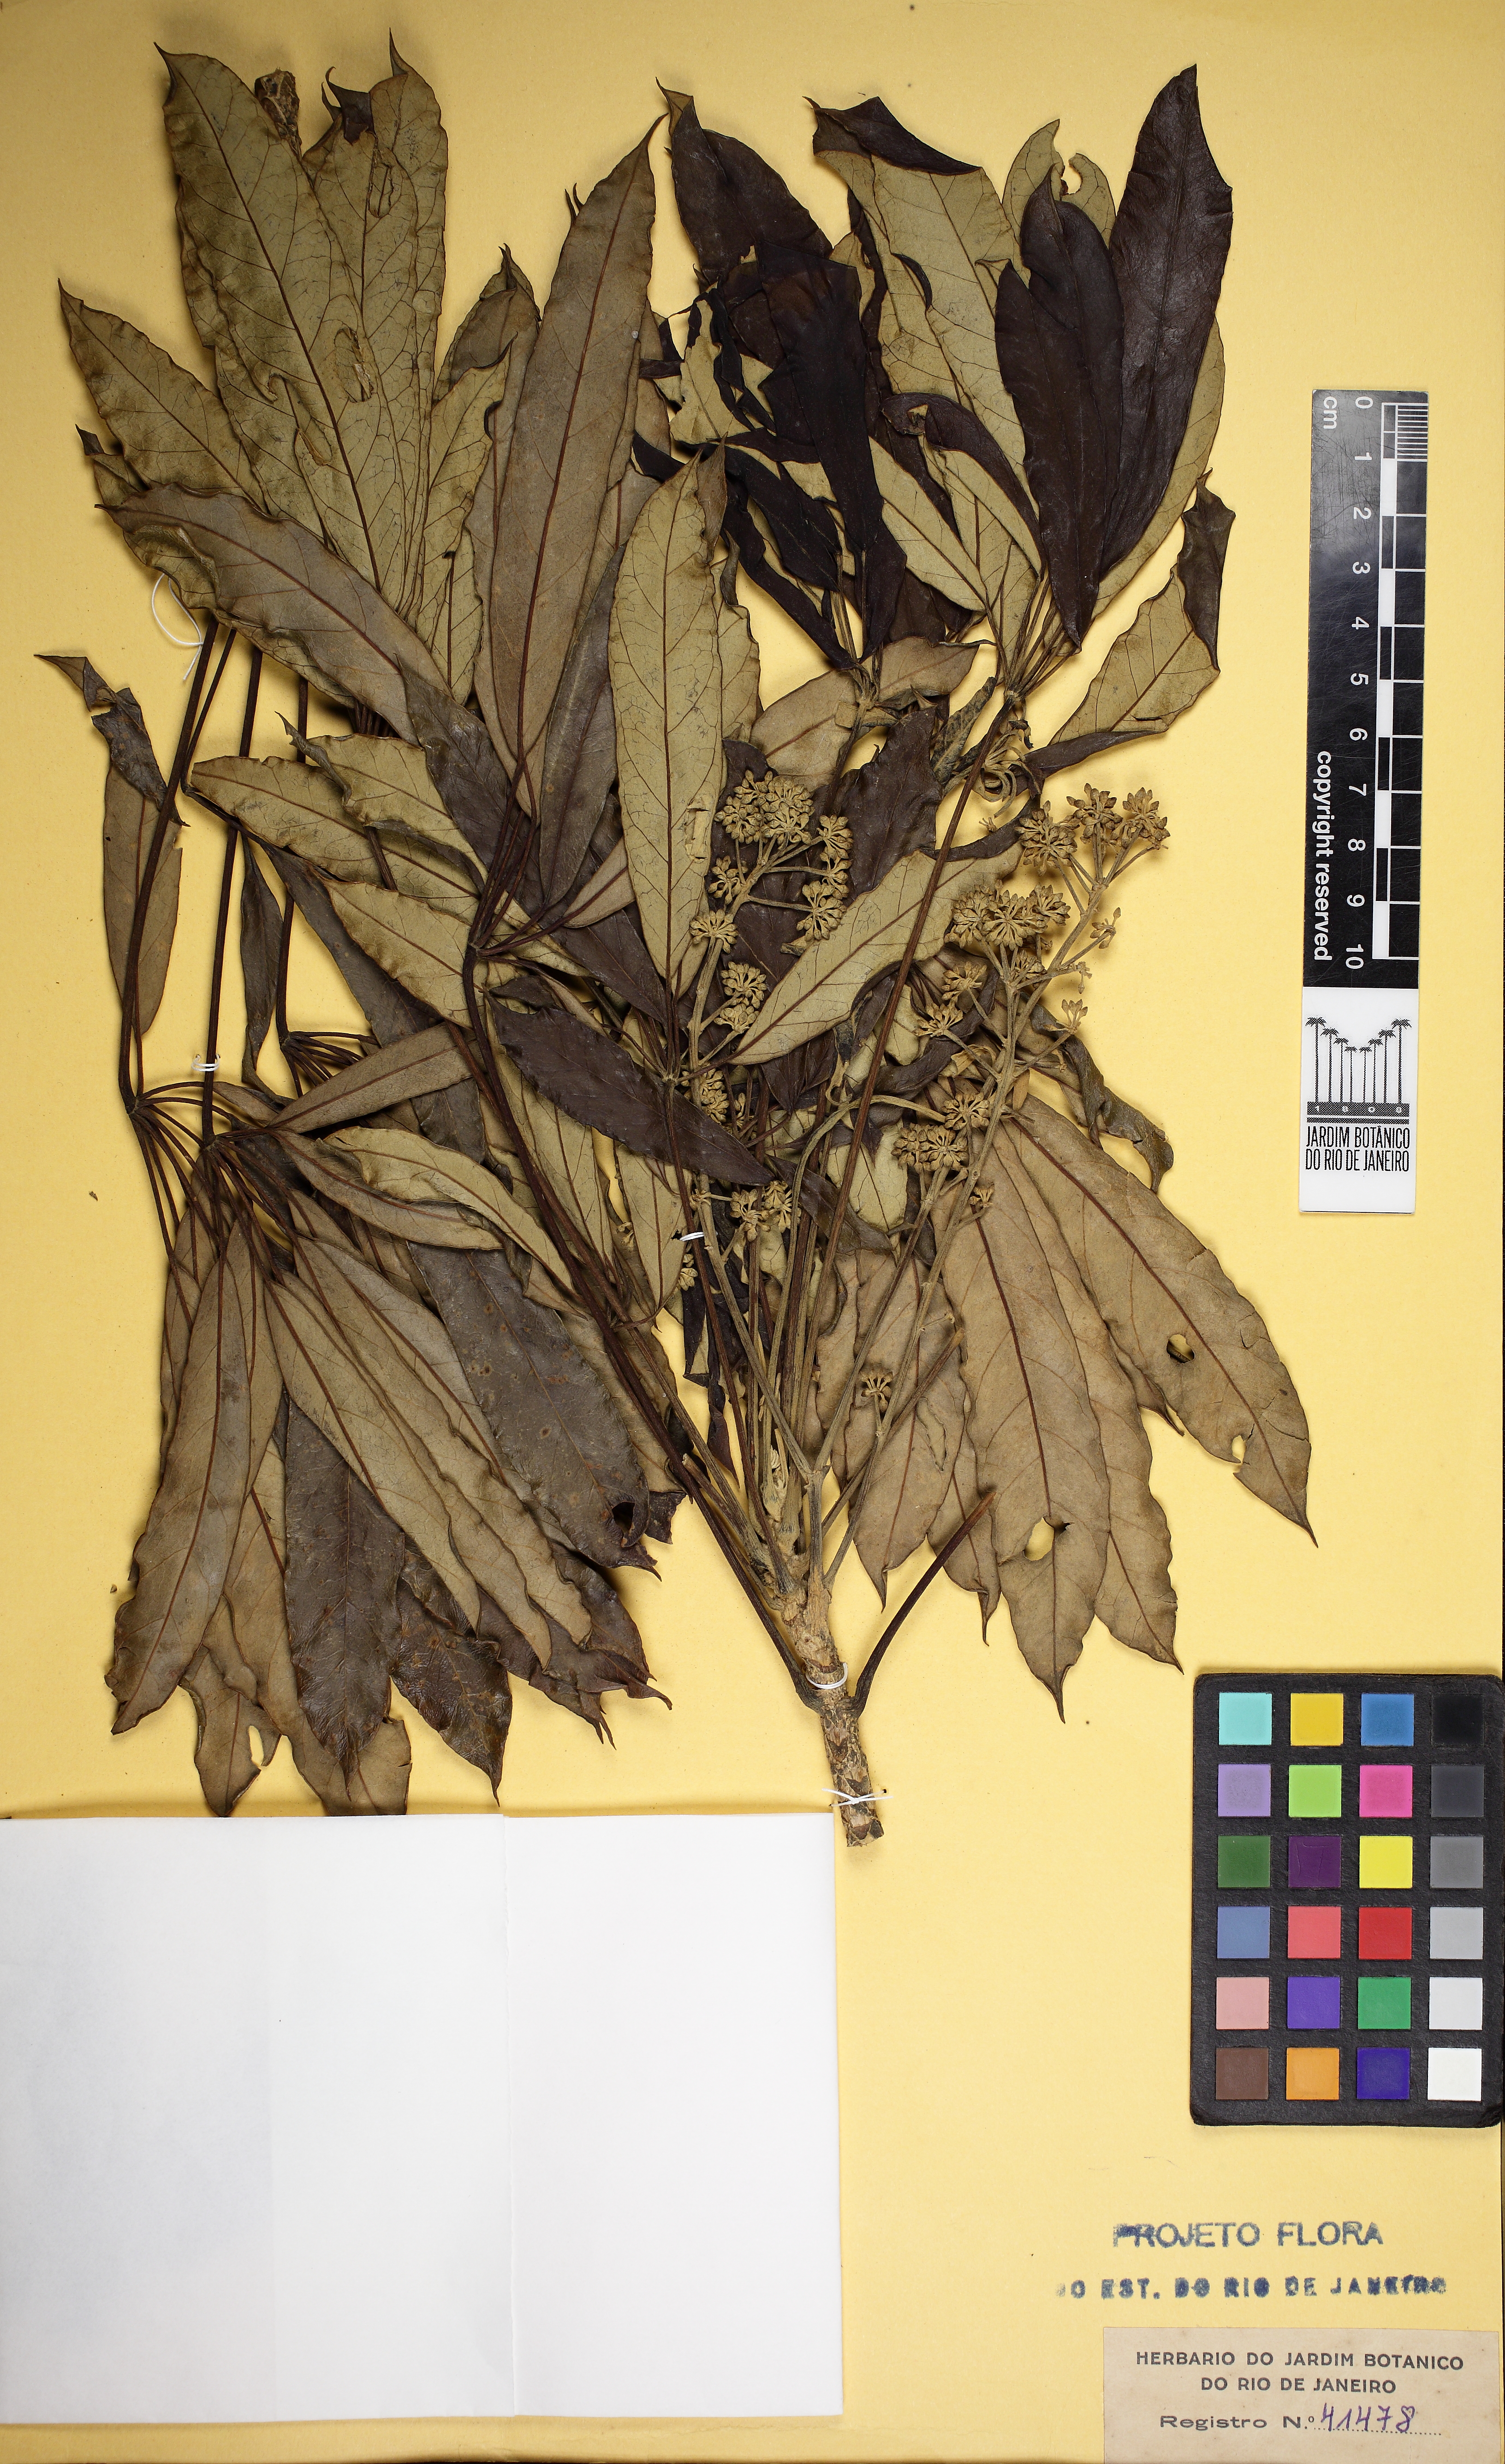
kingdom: Plantae
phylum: Tracheophyta
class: Magnoliopsida
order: Apiales
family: Araliaceae
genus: Didymopanax
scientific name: Didymopanax angustissimus
